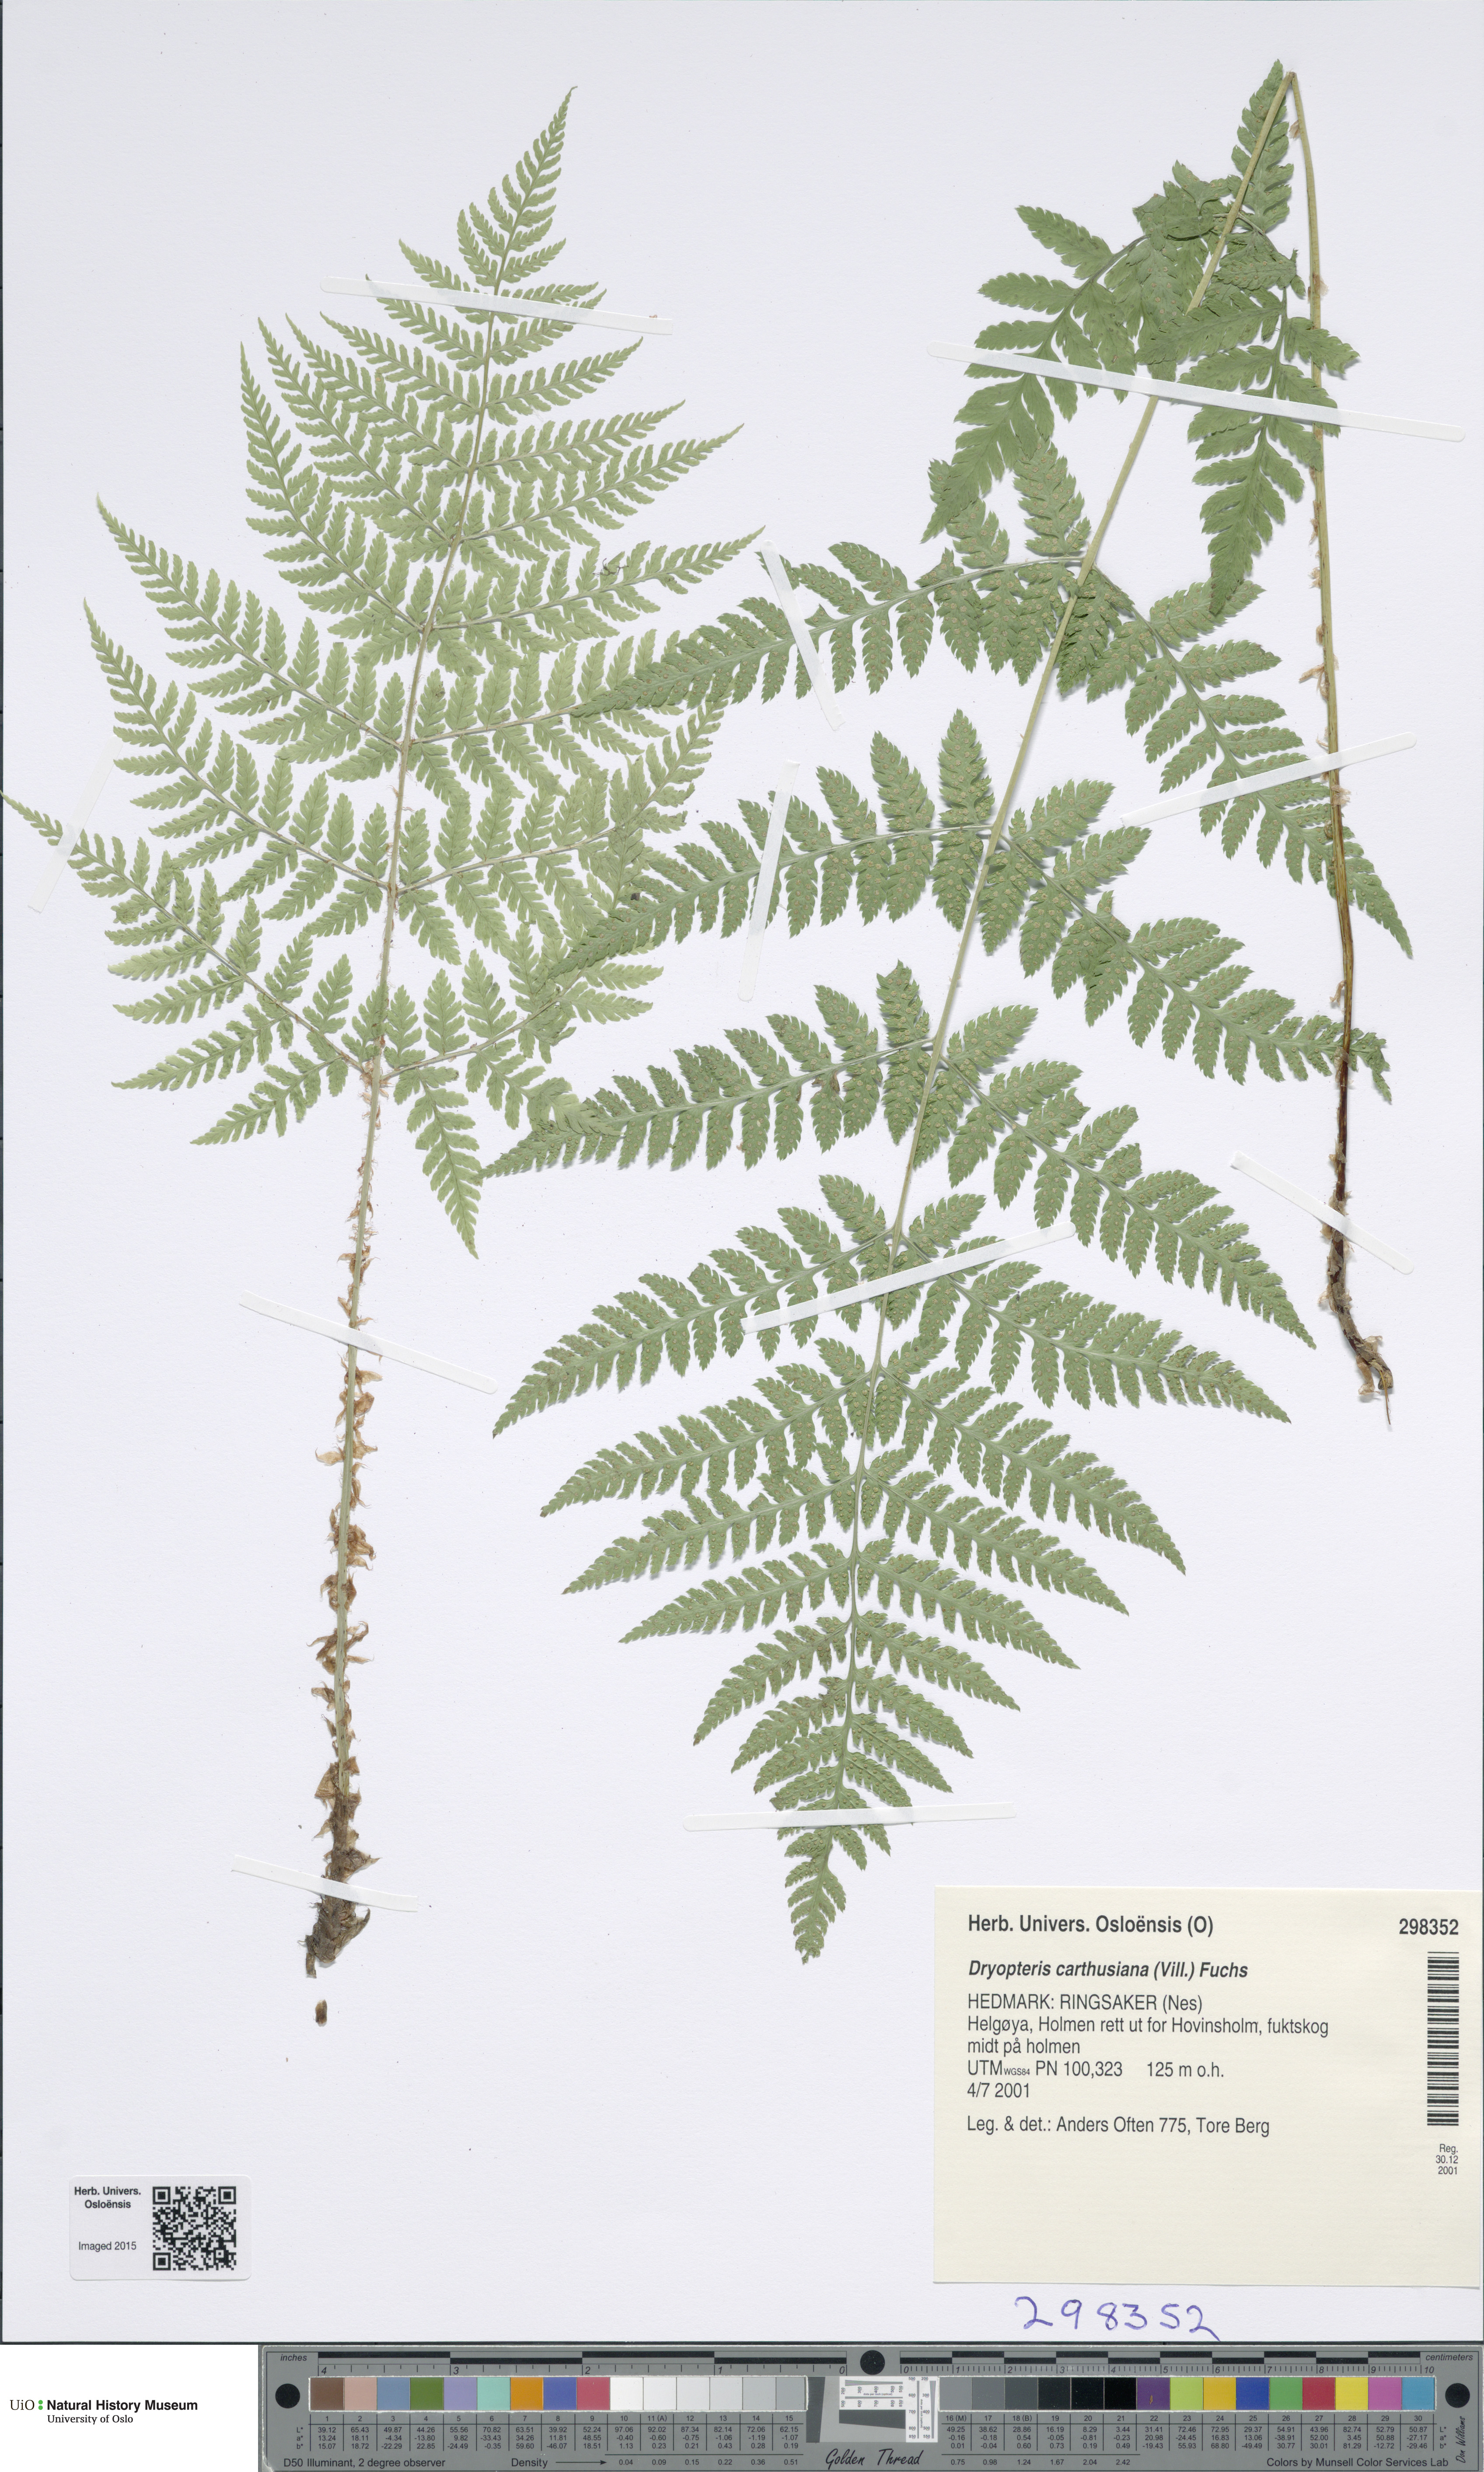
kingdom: Plantae
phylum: Tracheophyta
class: Polypodiopsida
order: Polypodiales
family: Dryopteridaceae
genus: Dryopteris
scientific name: Dryopteris carthusiana
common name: Narrow buckler-fern
